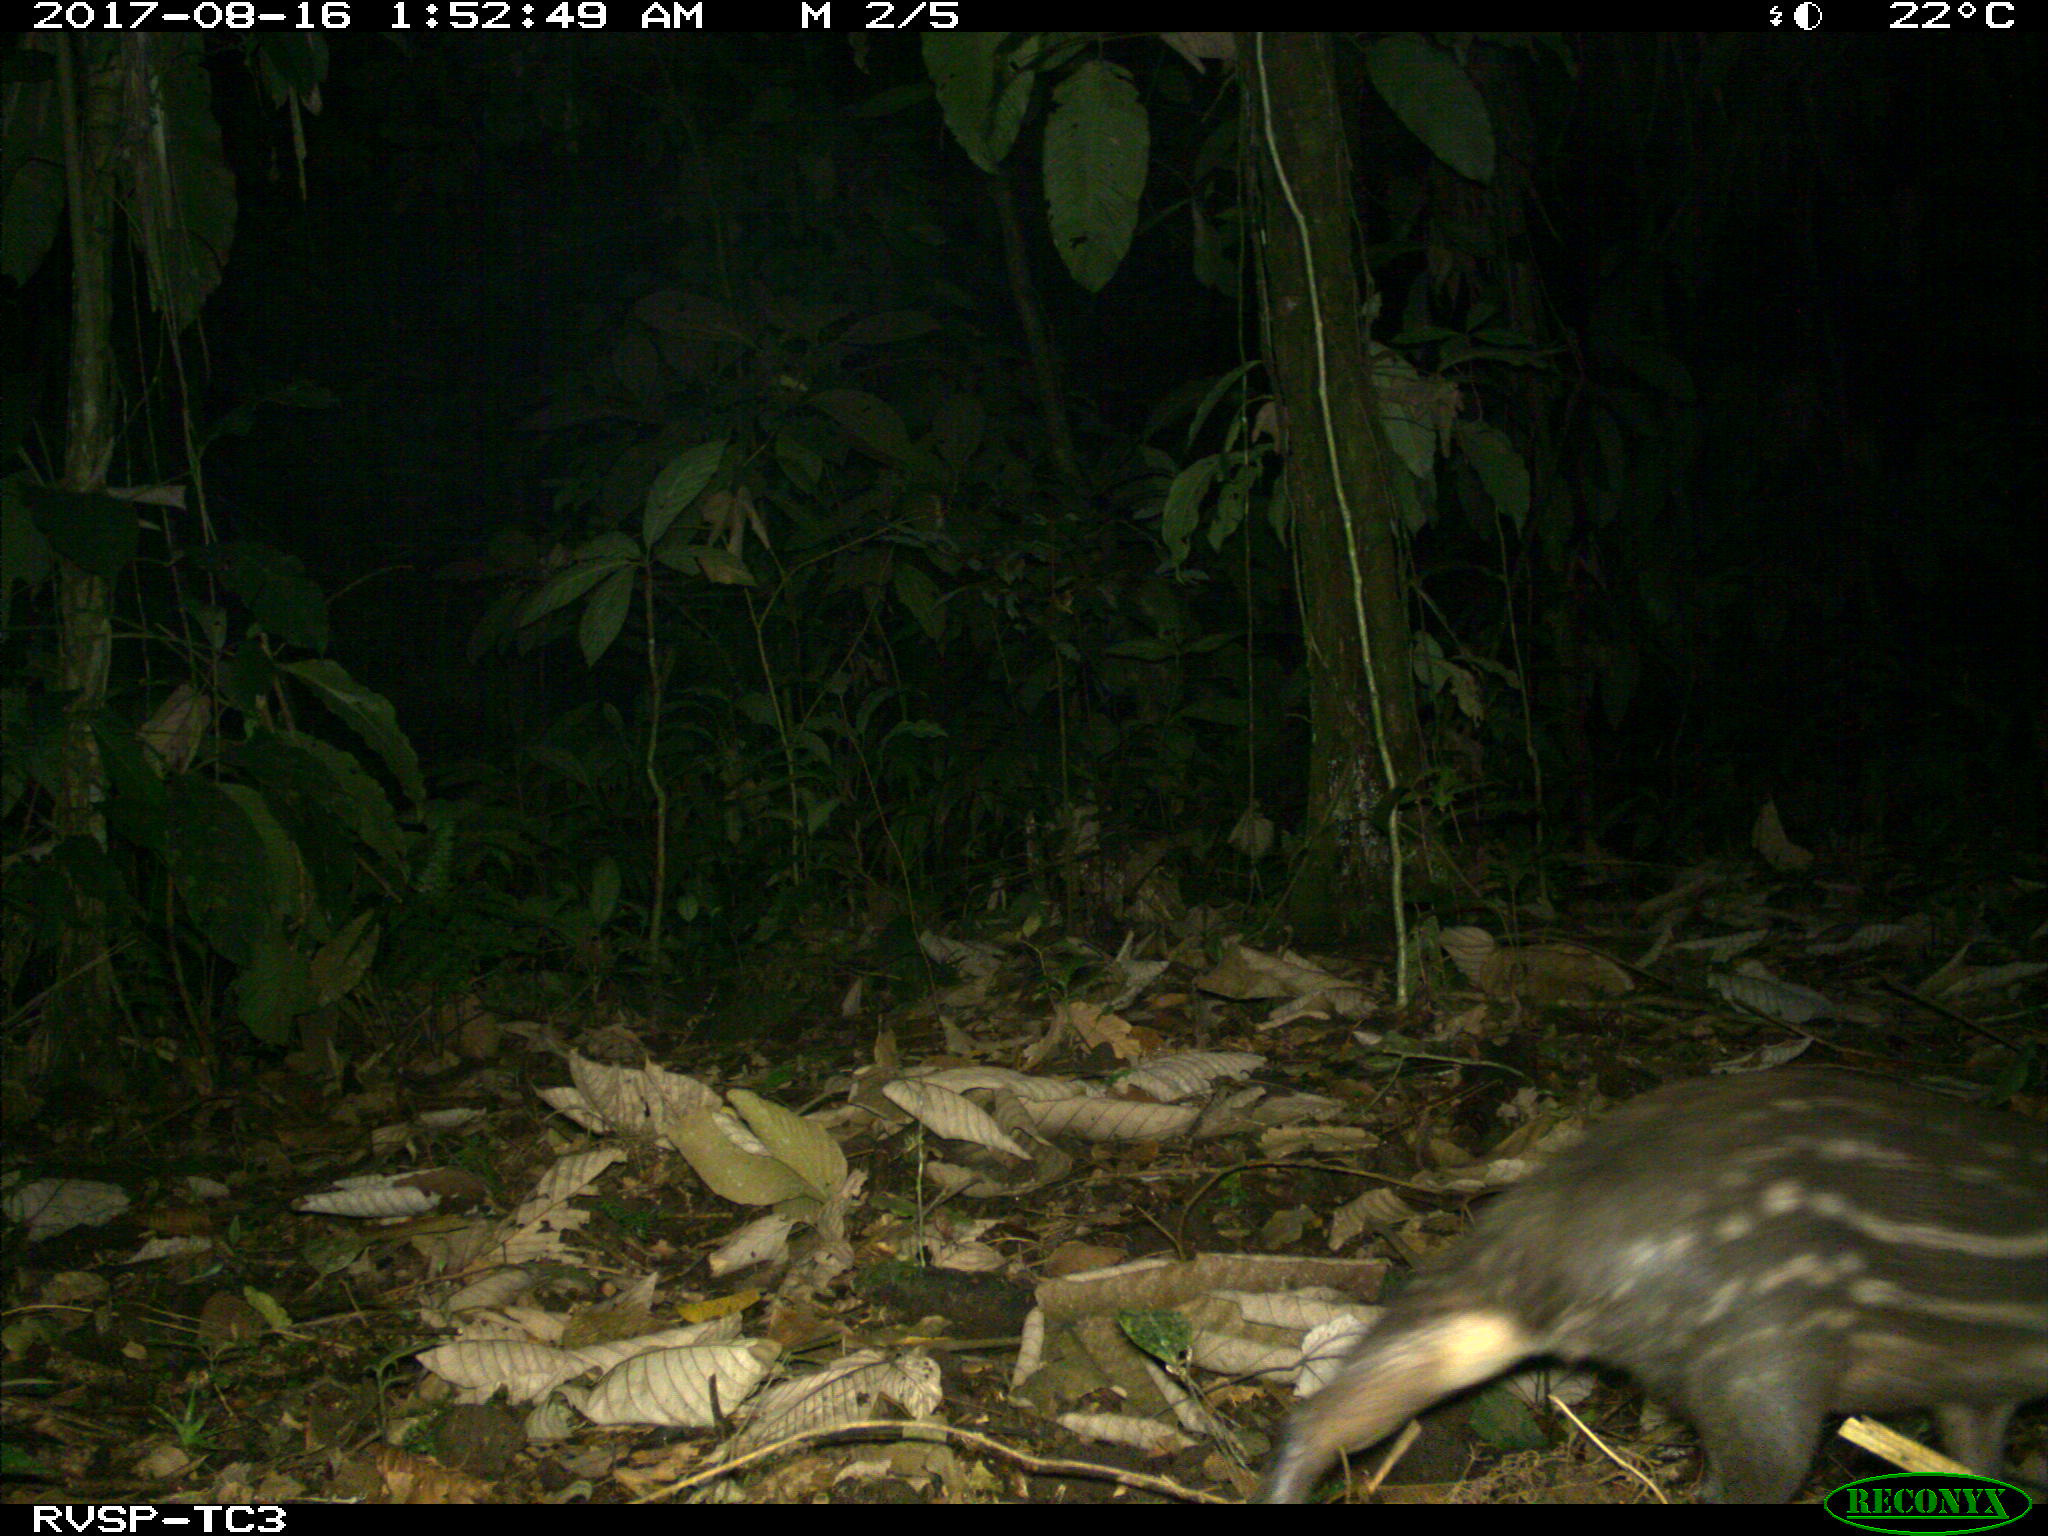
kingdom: Animalia
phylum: Chordata
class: Mammalia
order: Rodentia
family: Cuniculidae
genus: Cuniculus
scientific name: Cuniculus paca
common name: Lowland paca
